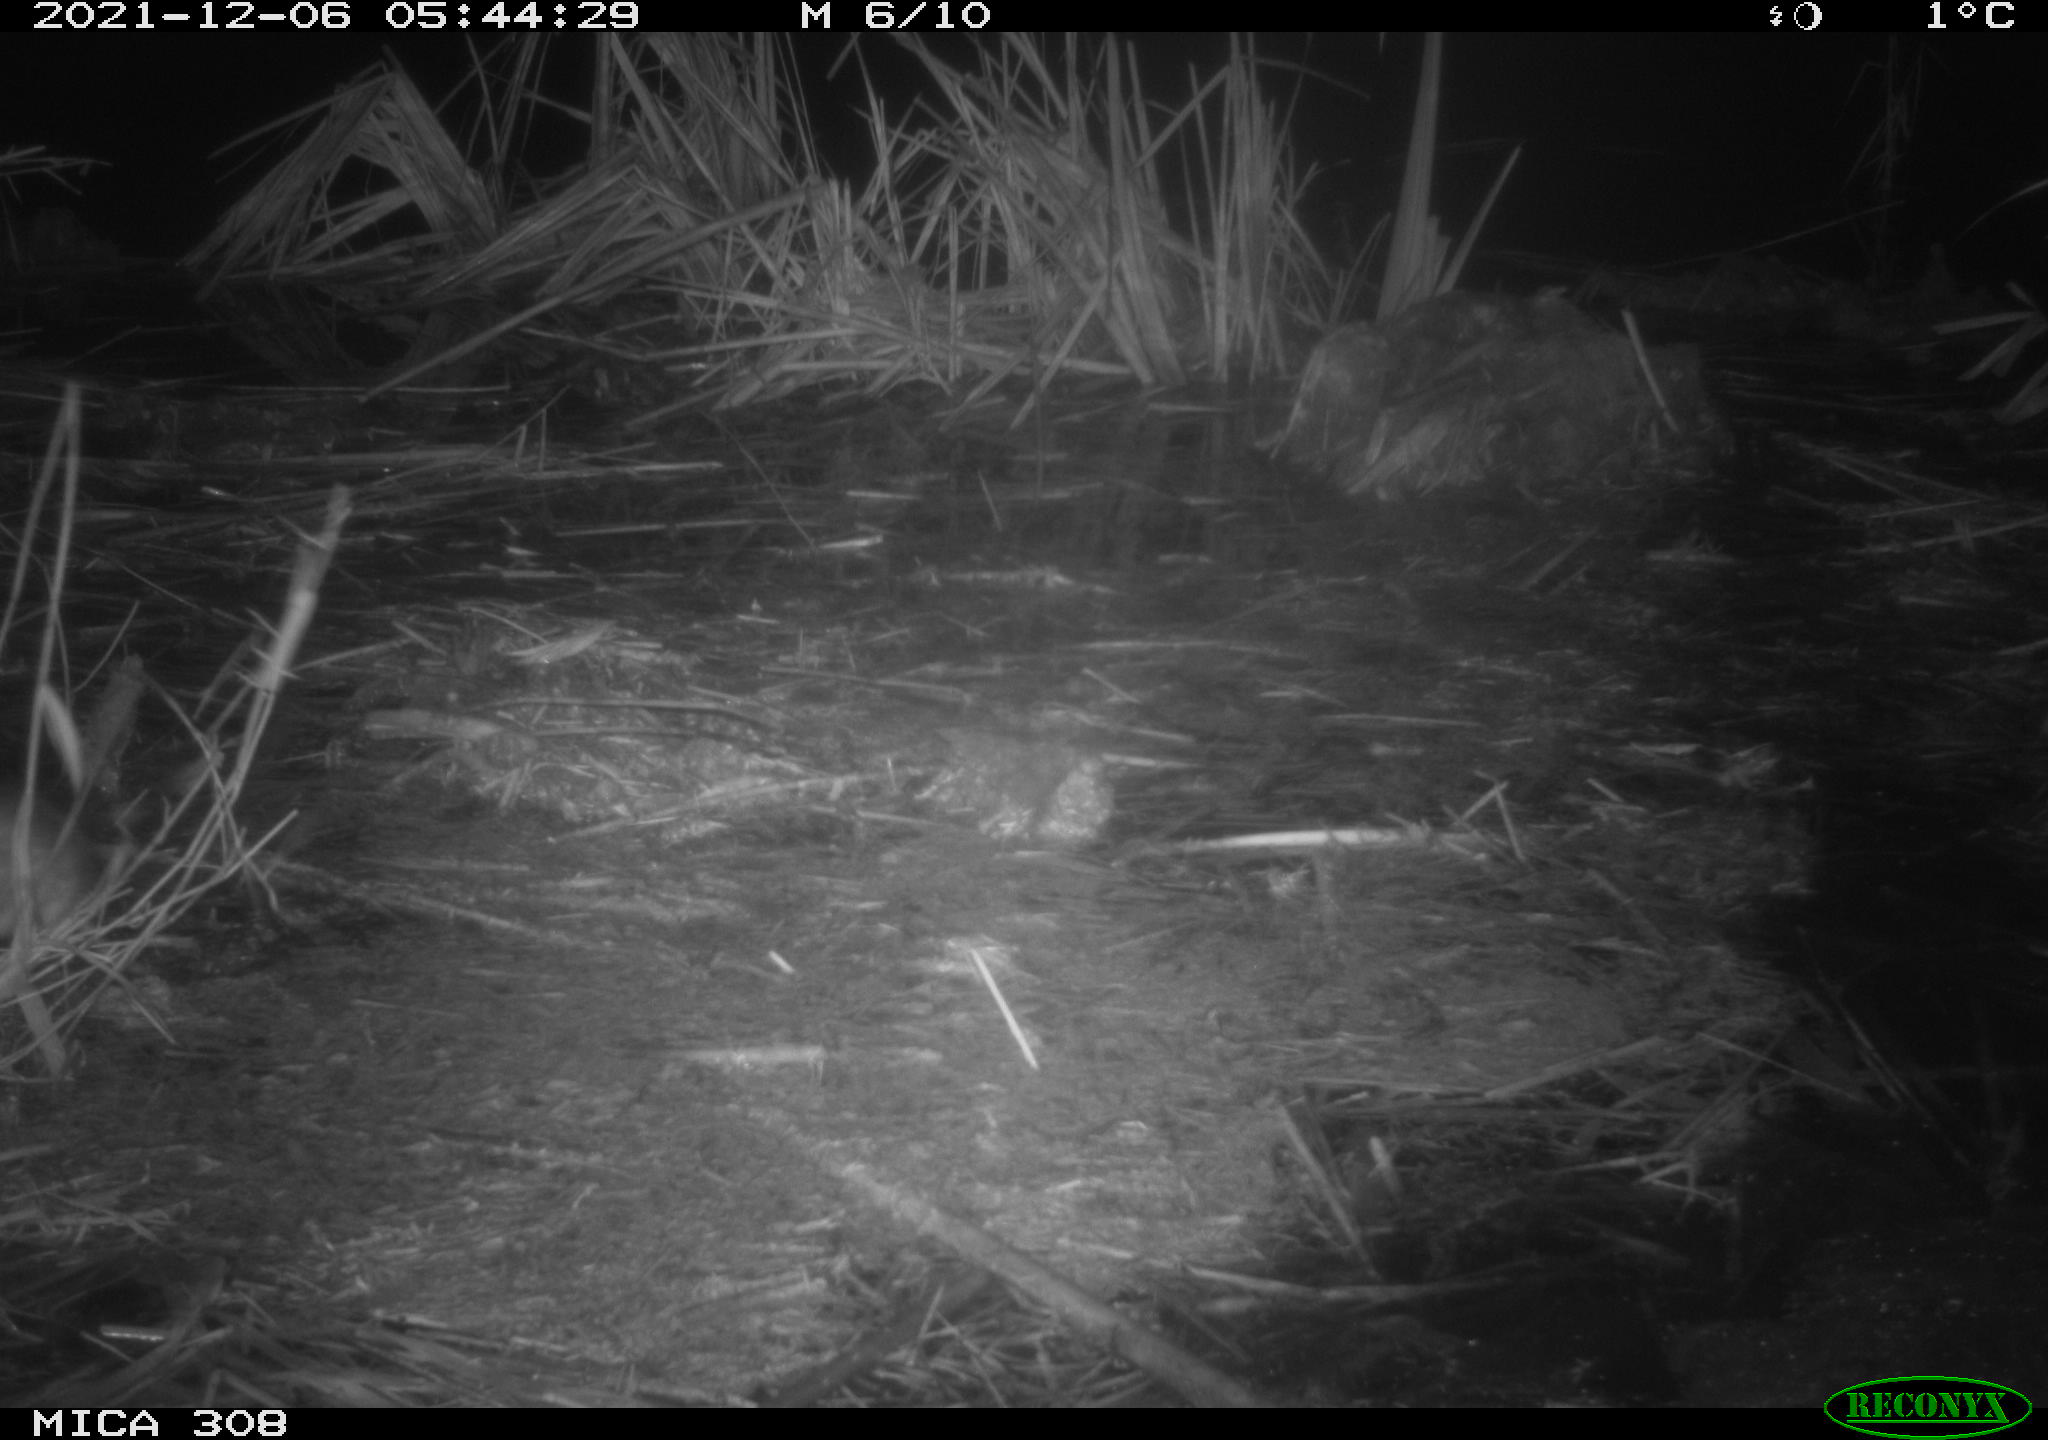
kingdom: Animalia
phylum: Chordata
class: Mammalia
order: Rodentia
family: Muridae
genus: Rattus
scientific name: Rattus norvegicus
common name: Brown rat
